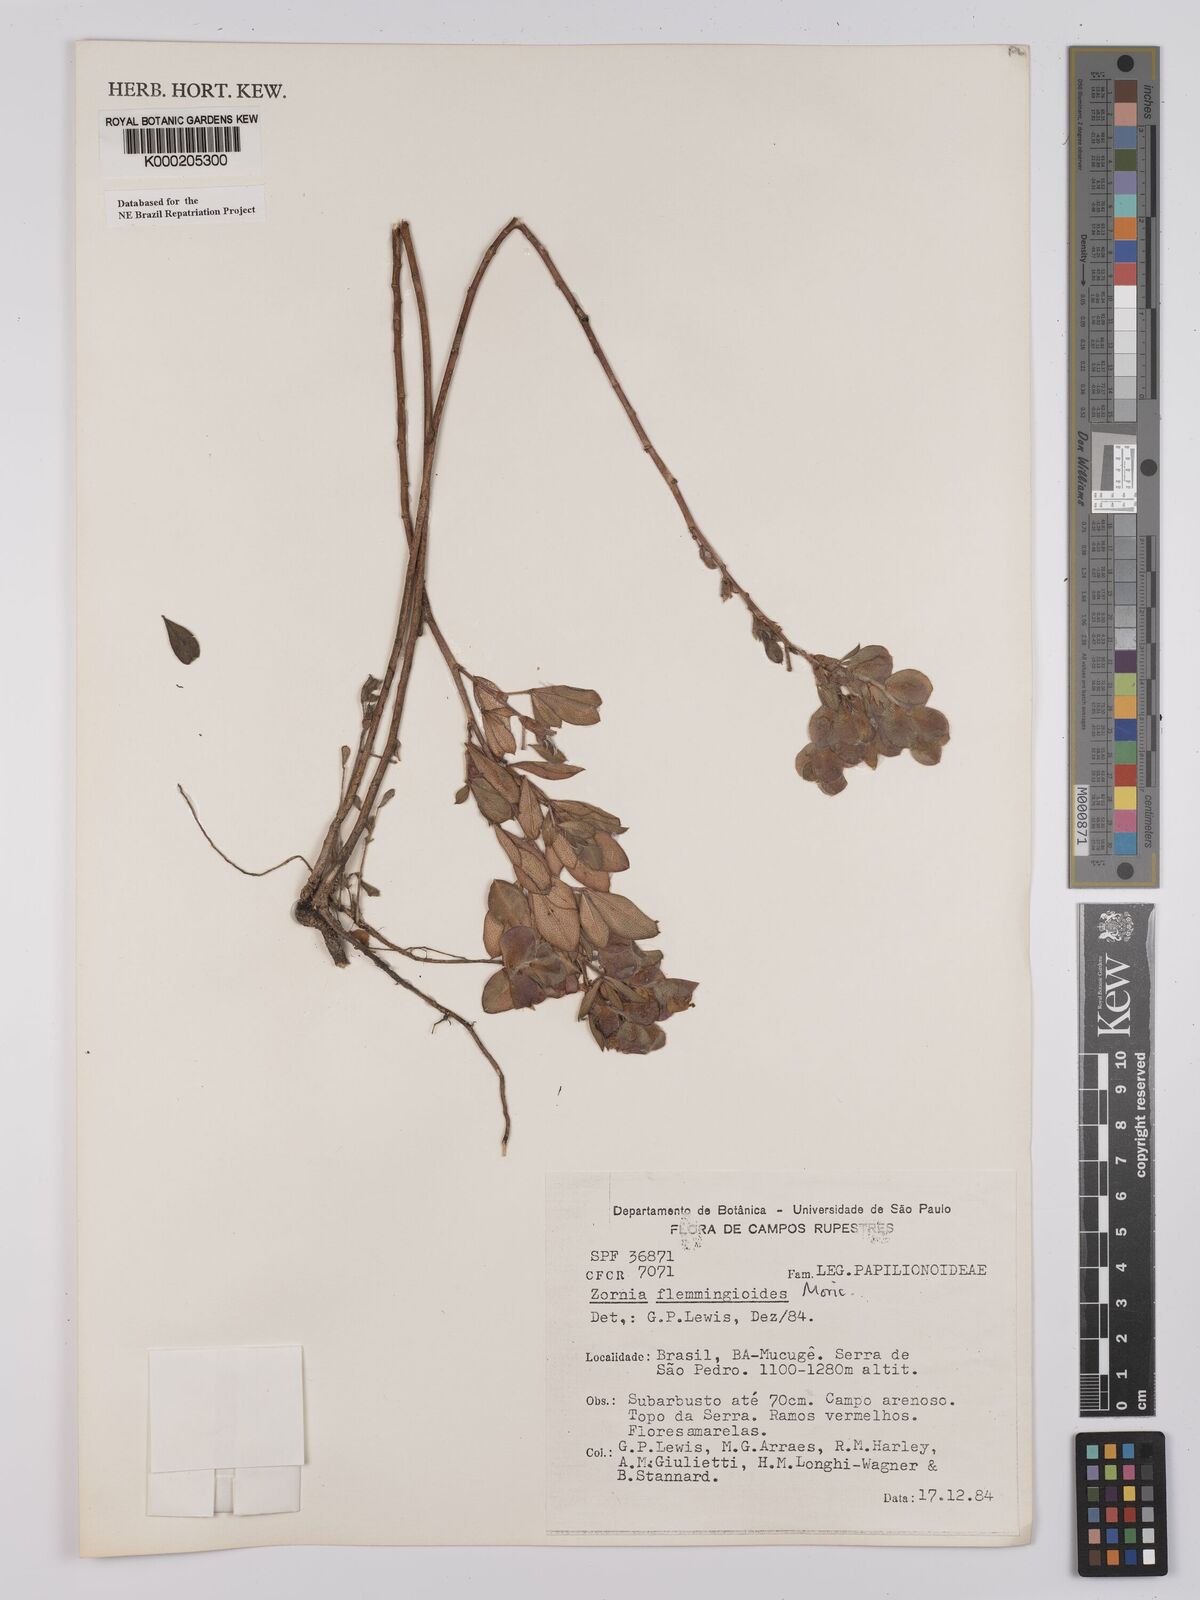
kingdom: Plantae
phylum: Tracheophyta
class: Magnoliopsida
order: Fabales
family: Fabaceae
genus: Zornia
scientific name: Zornia flemmingioides
